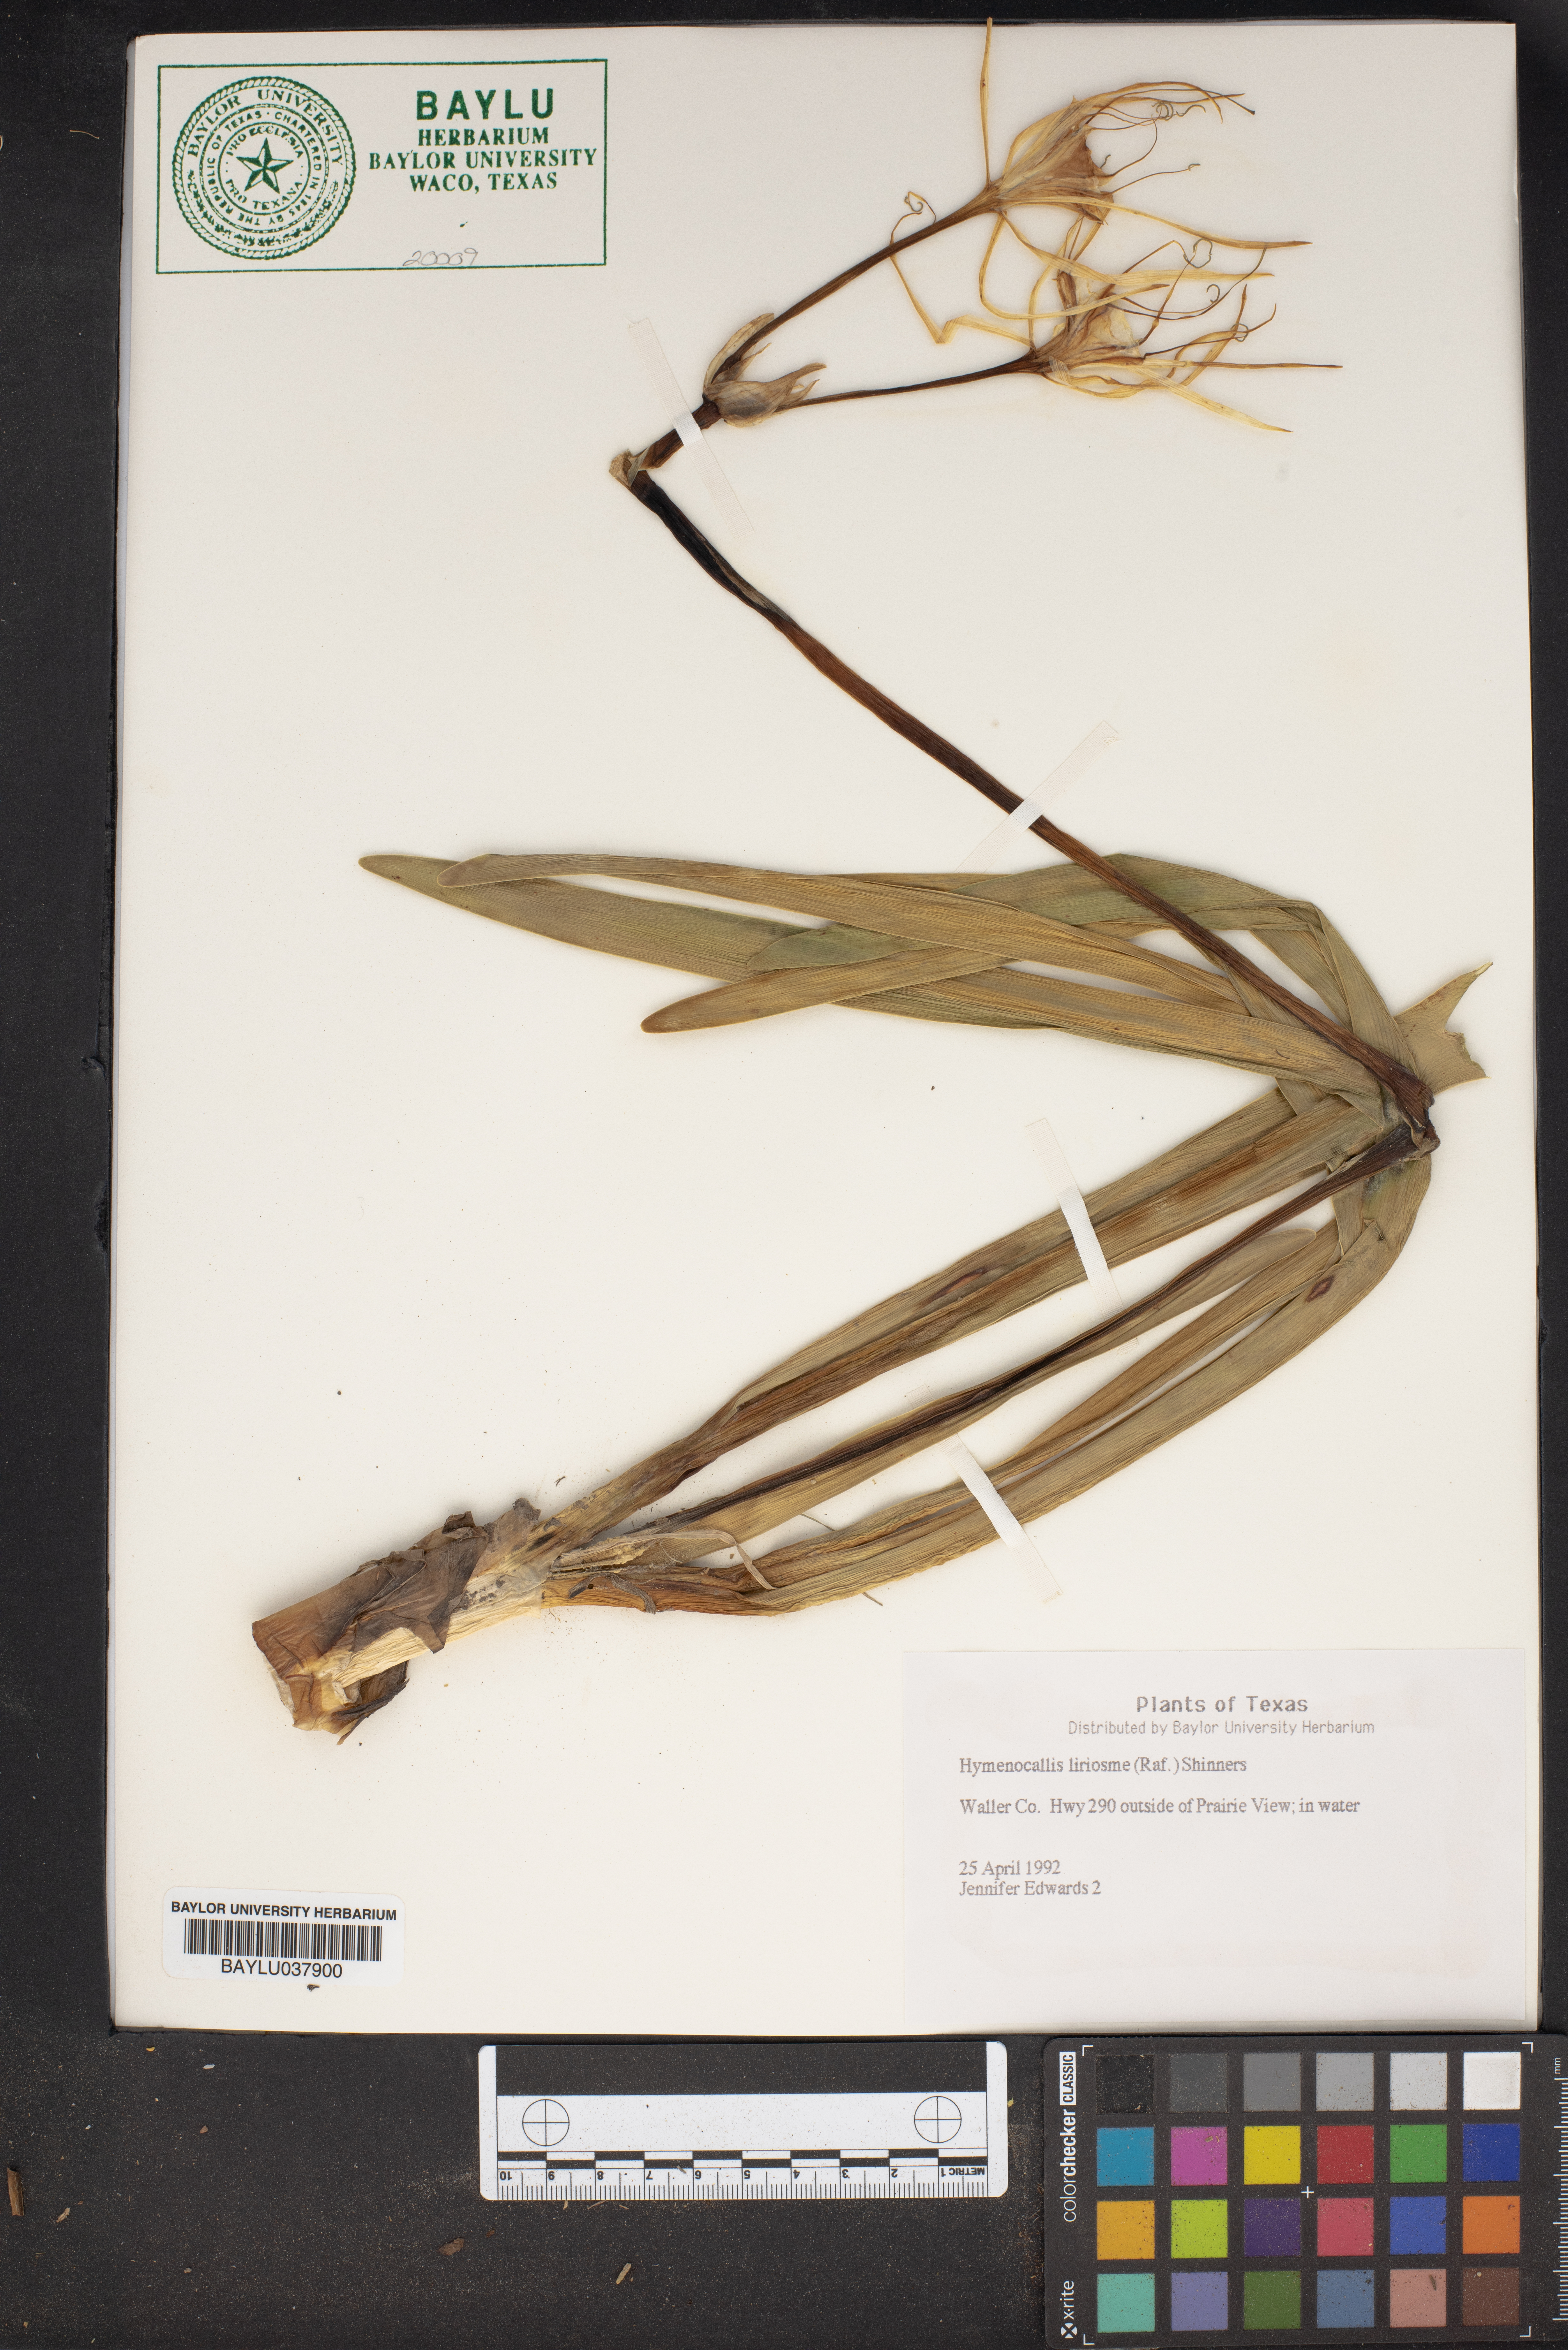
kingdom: Plantae
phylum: Tracheophyta
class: Liliopsida
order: Asparagales
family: Amaryllidaceae
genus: Hymenocallis
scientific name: Hymenocallis liriosme
